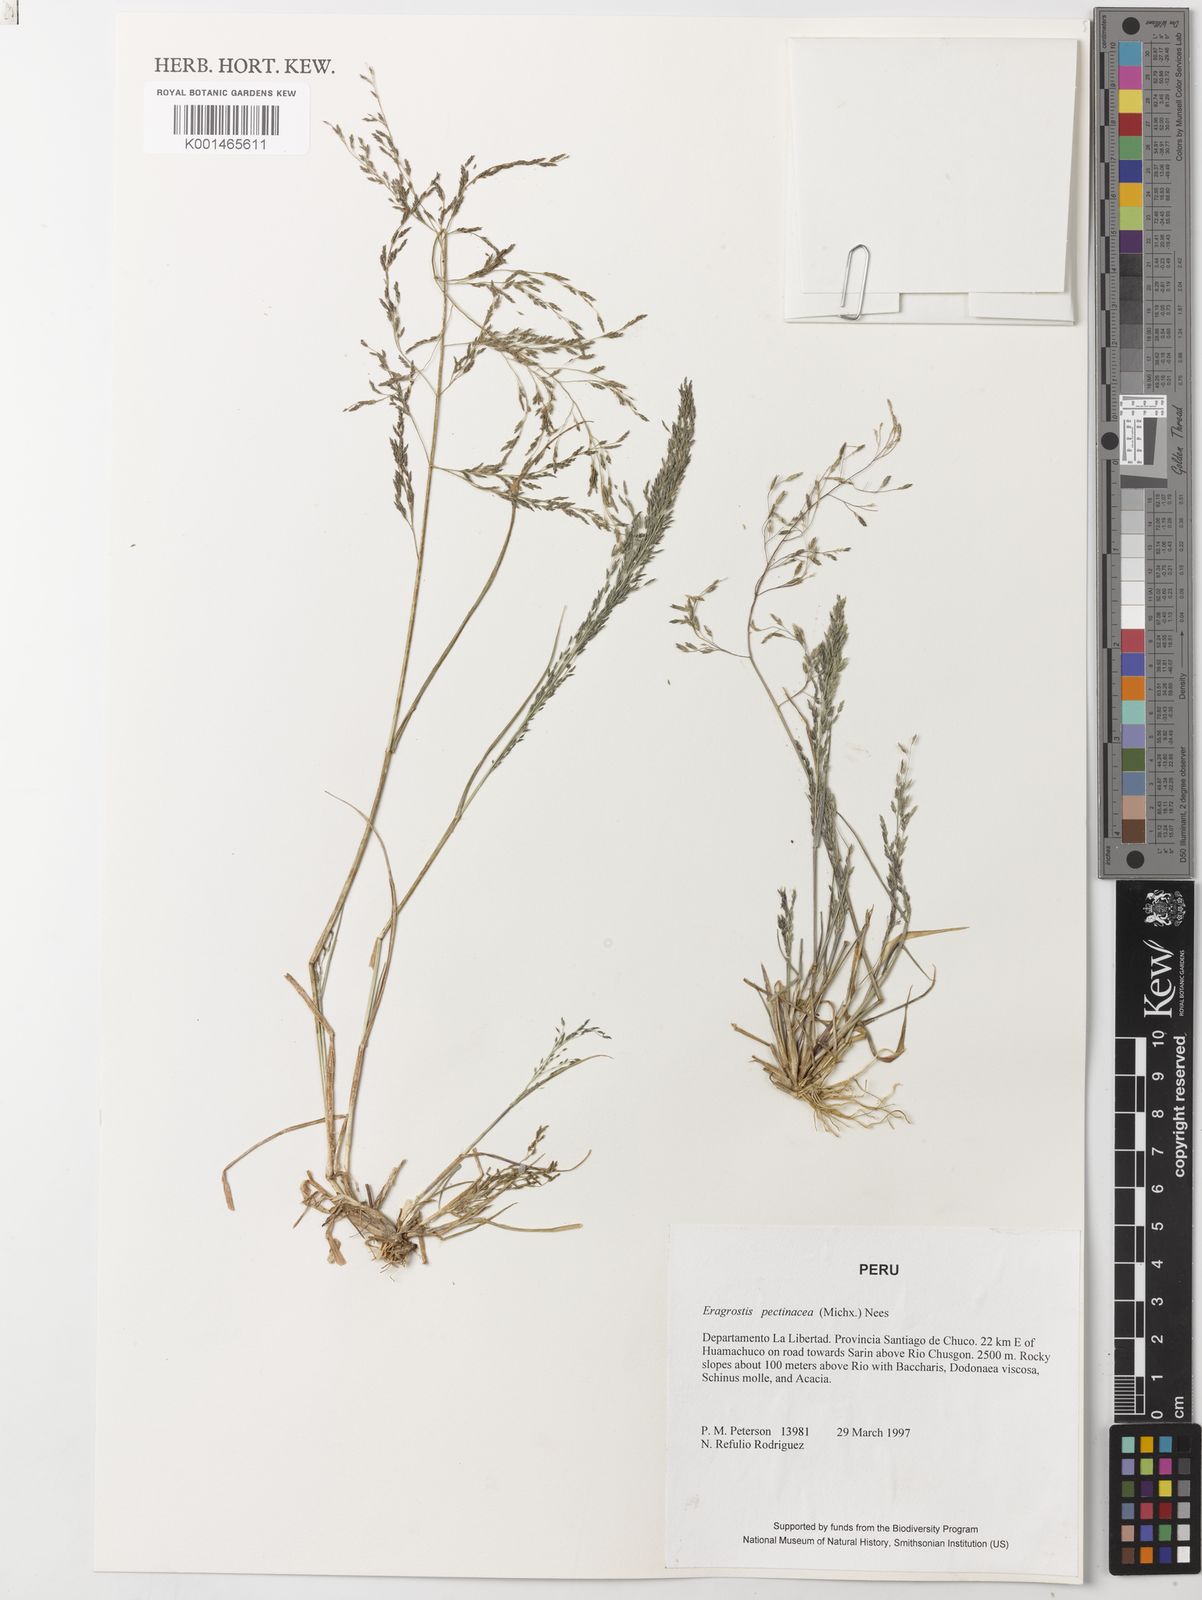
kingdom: Plantae
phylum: Tracheophyta
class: Liliopsida
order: Poales
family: Poaceae
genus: Eragrostis
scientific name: Eragrostis pectinacea
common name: Tufted lovegrass
